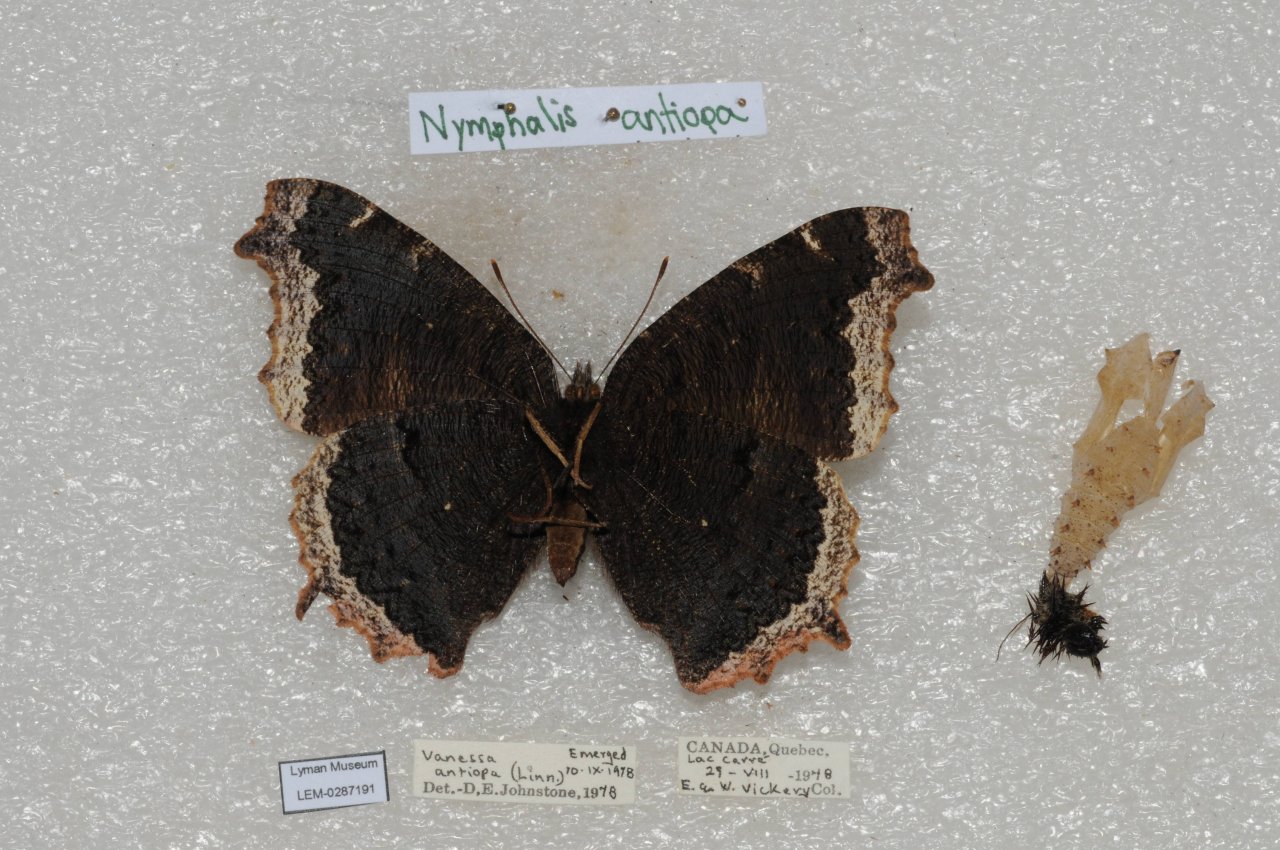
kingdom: Animalia
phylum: Arthropoda
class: Insecta
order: Lepidoptera
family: Nymphalidae
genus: Nymphalis
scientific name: Nymphalis antiopa
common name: Mourning Cloak
